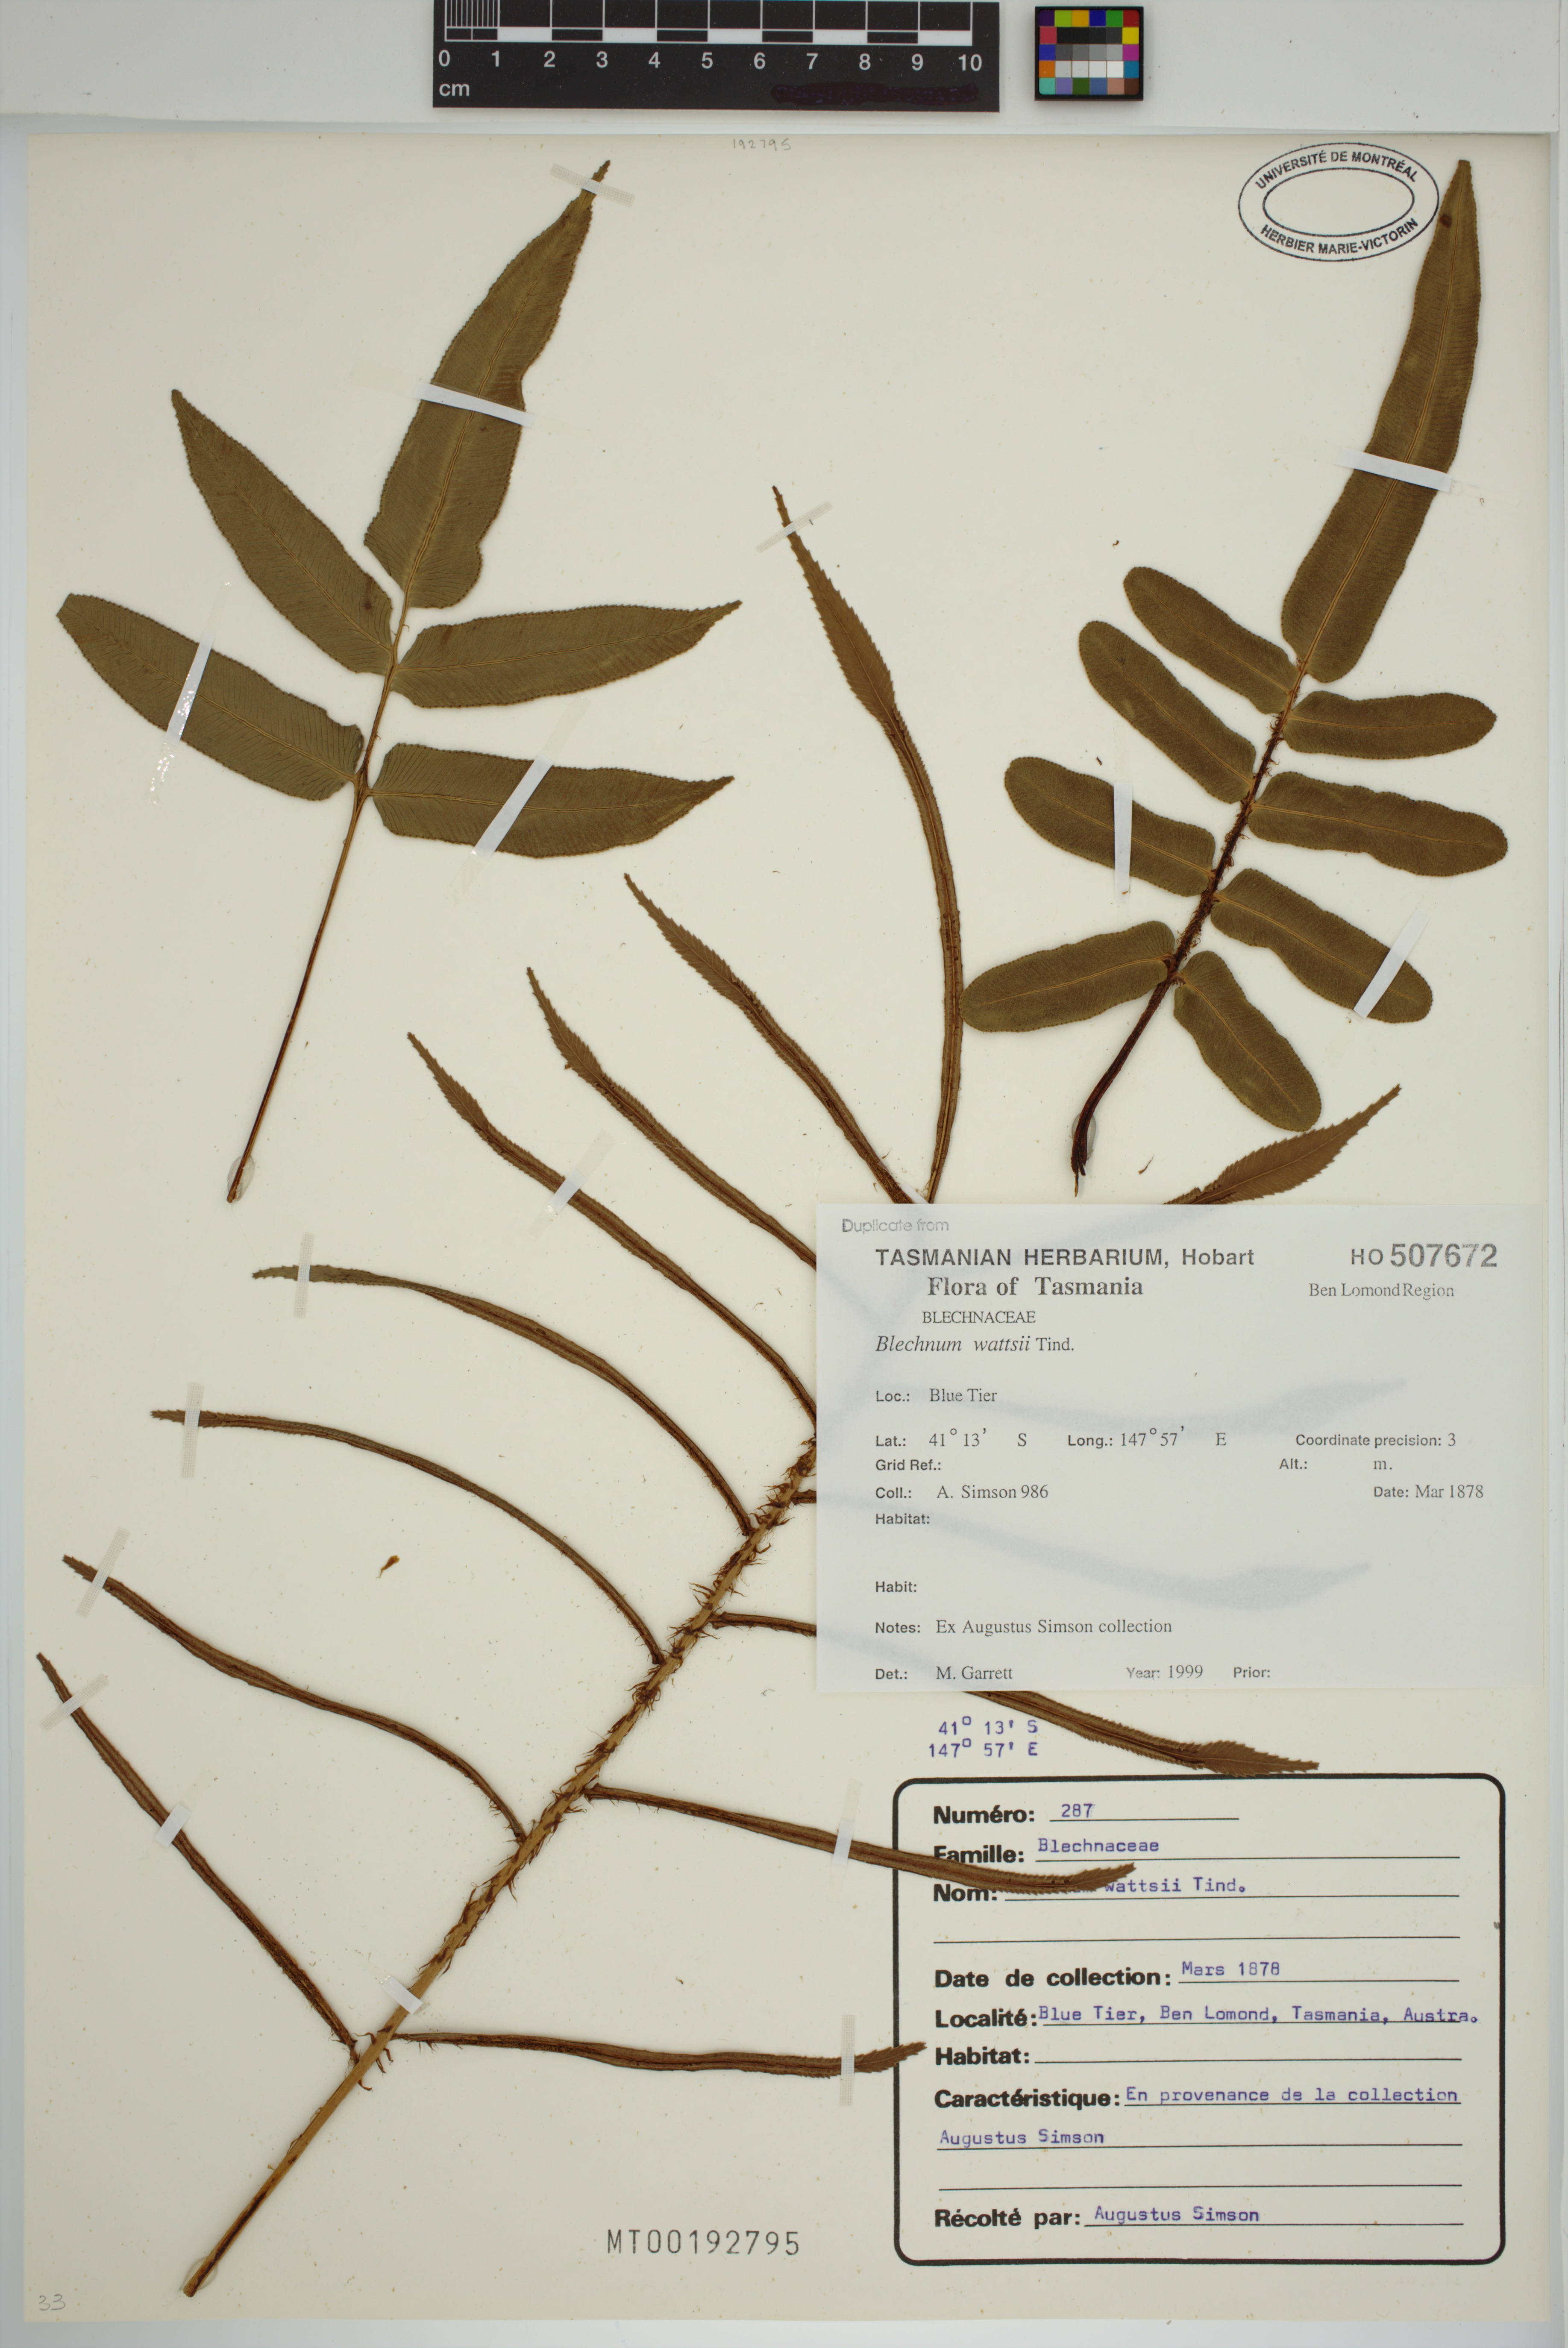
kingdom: Plantae
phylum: Tracheophyta
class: Polypodiopsida
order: Polypodiales
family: Blechnaceae
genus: Parablechnum
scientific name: Parablechnum wattsii
